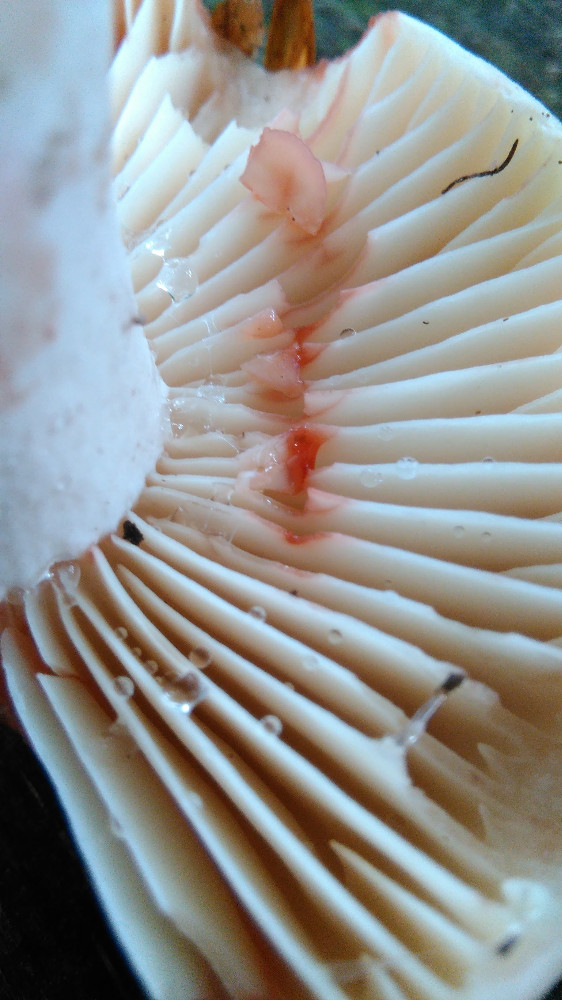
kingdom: Fungi
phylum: Basidiomycota
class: Agaricomycetes
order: Russulales
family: Russulaceae
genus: Russula
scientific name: Russula adusta
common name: sværtende skørhat
